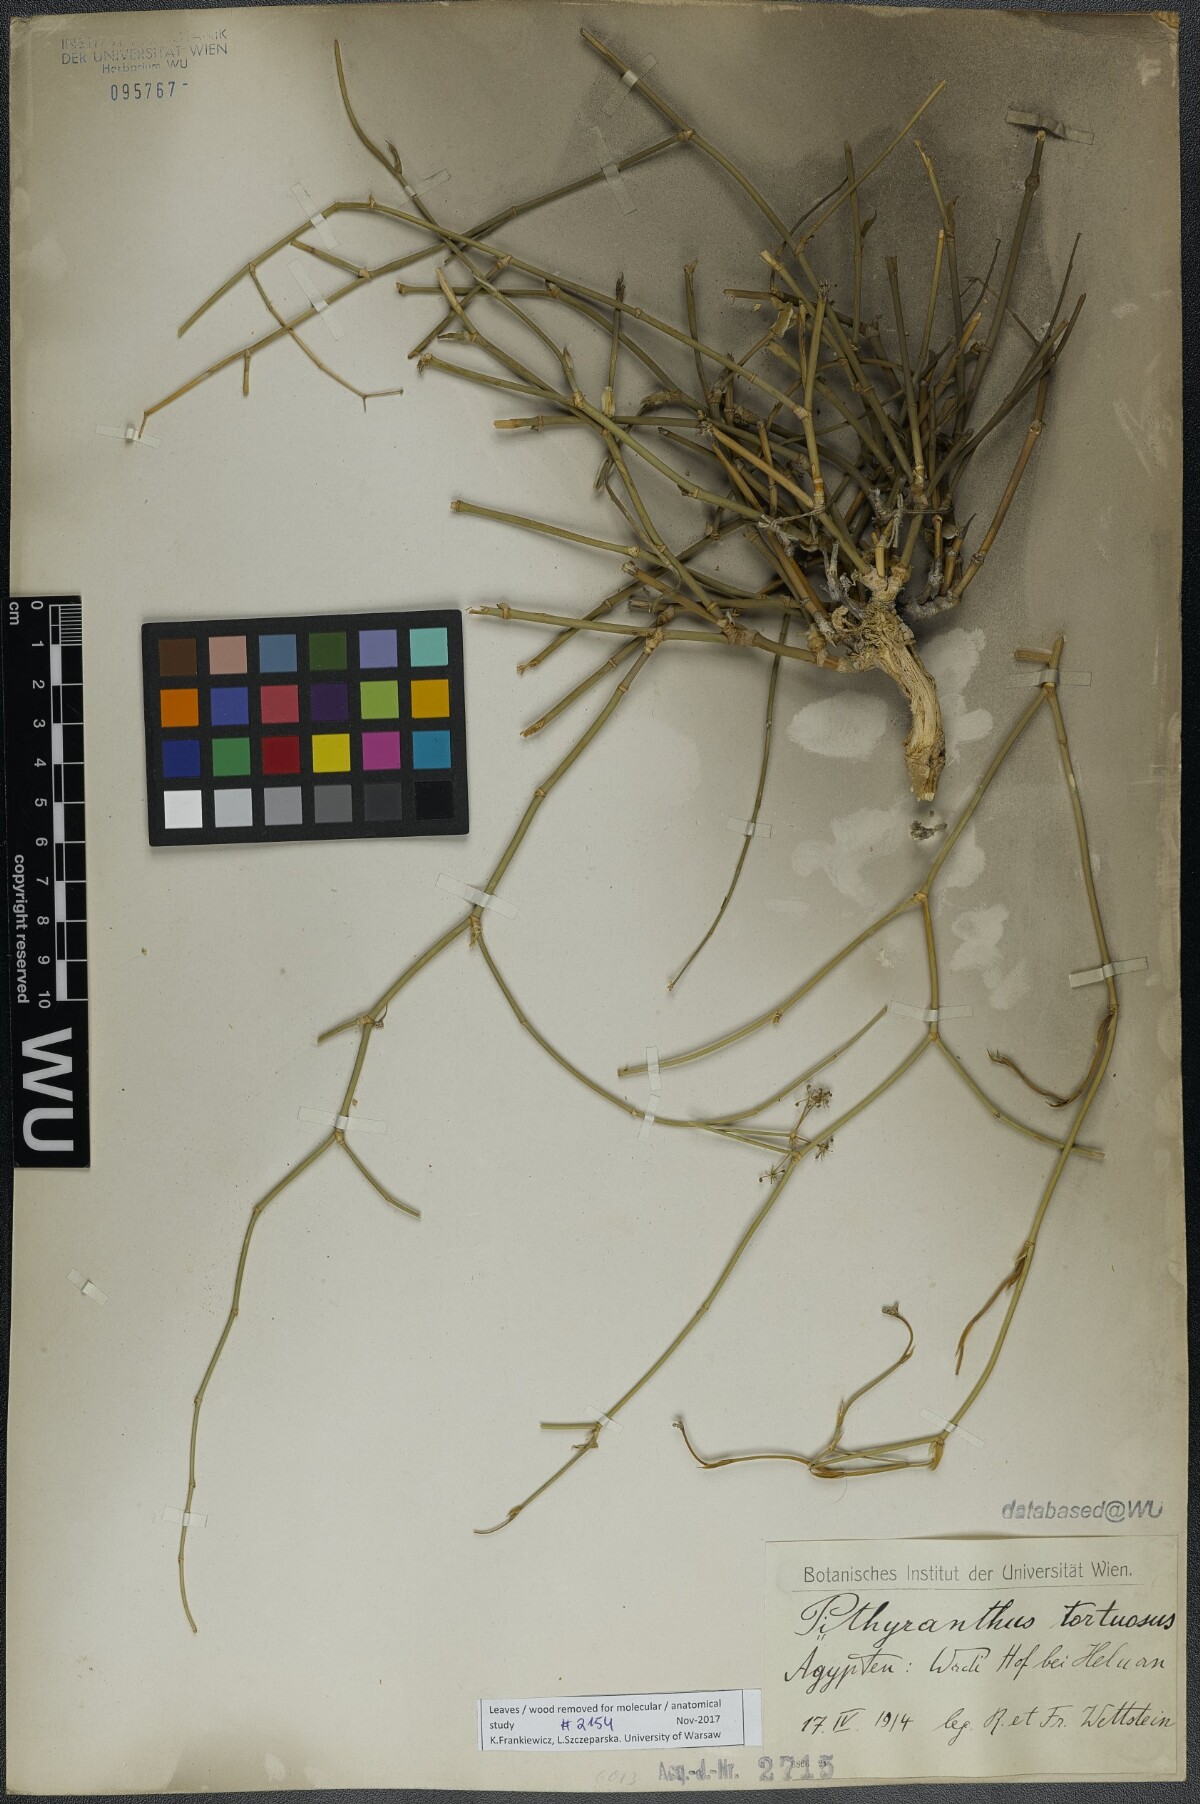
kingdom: Plantae
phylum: Tracheophyta
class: Magnoliopsida
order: Apiales
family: Apiaceae
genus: Deverra
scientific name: Deverra tortuosa
